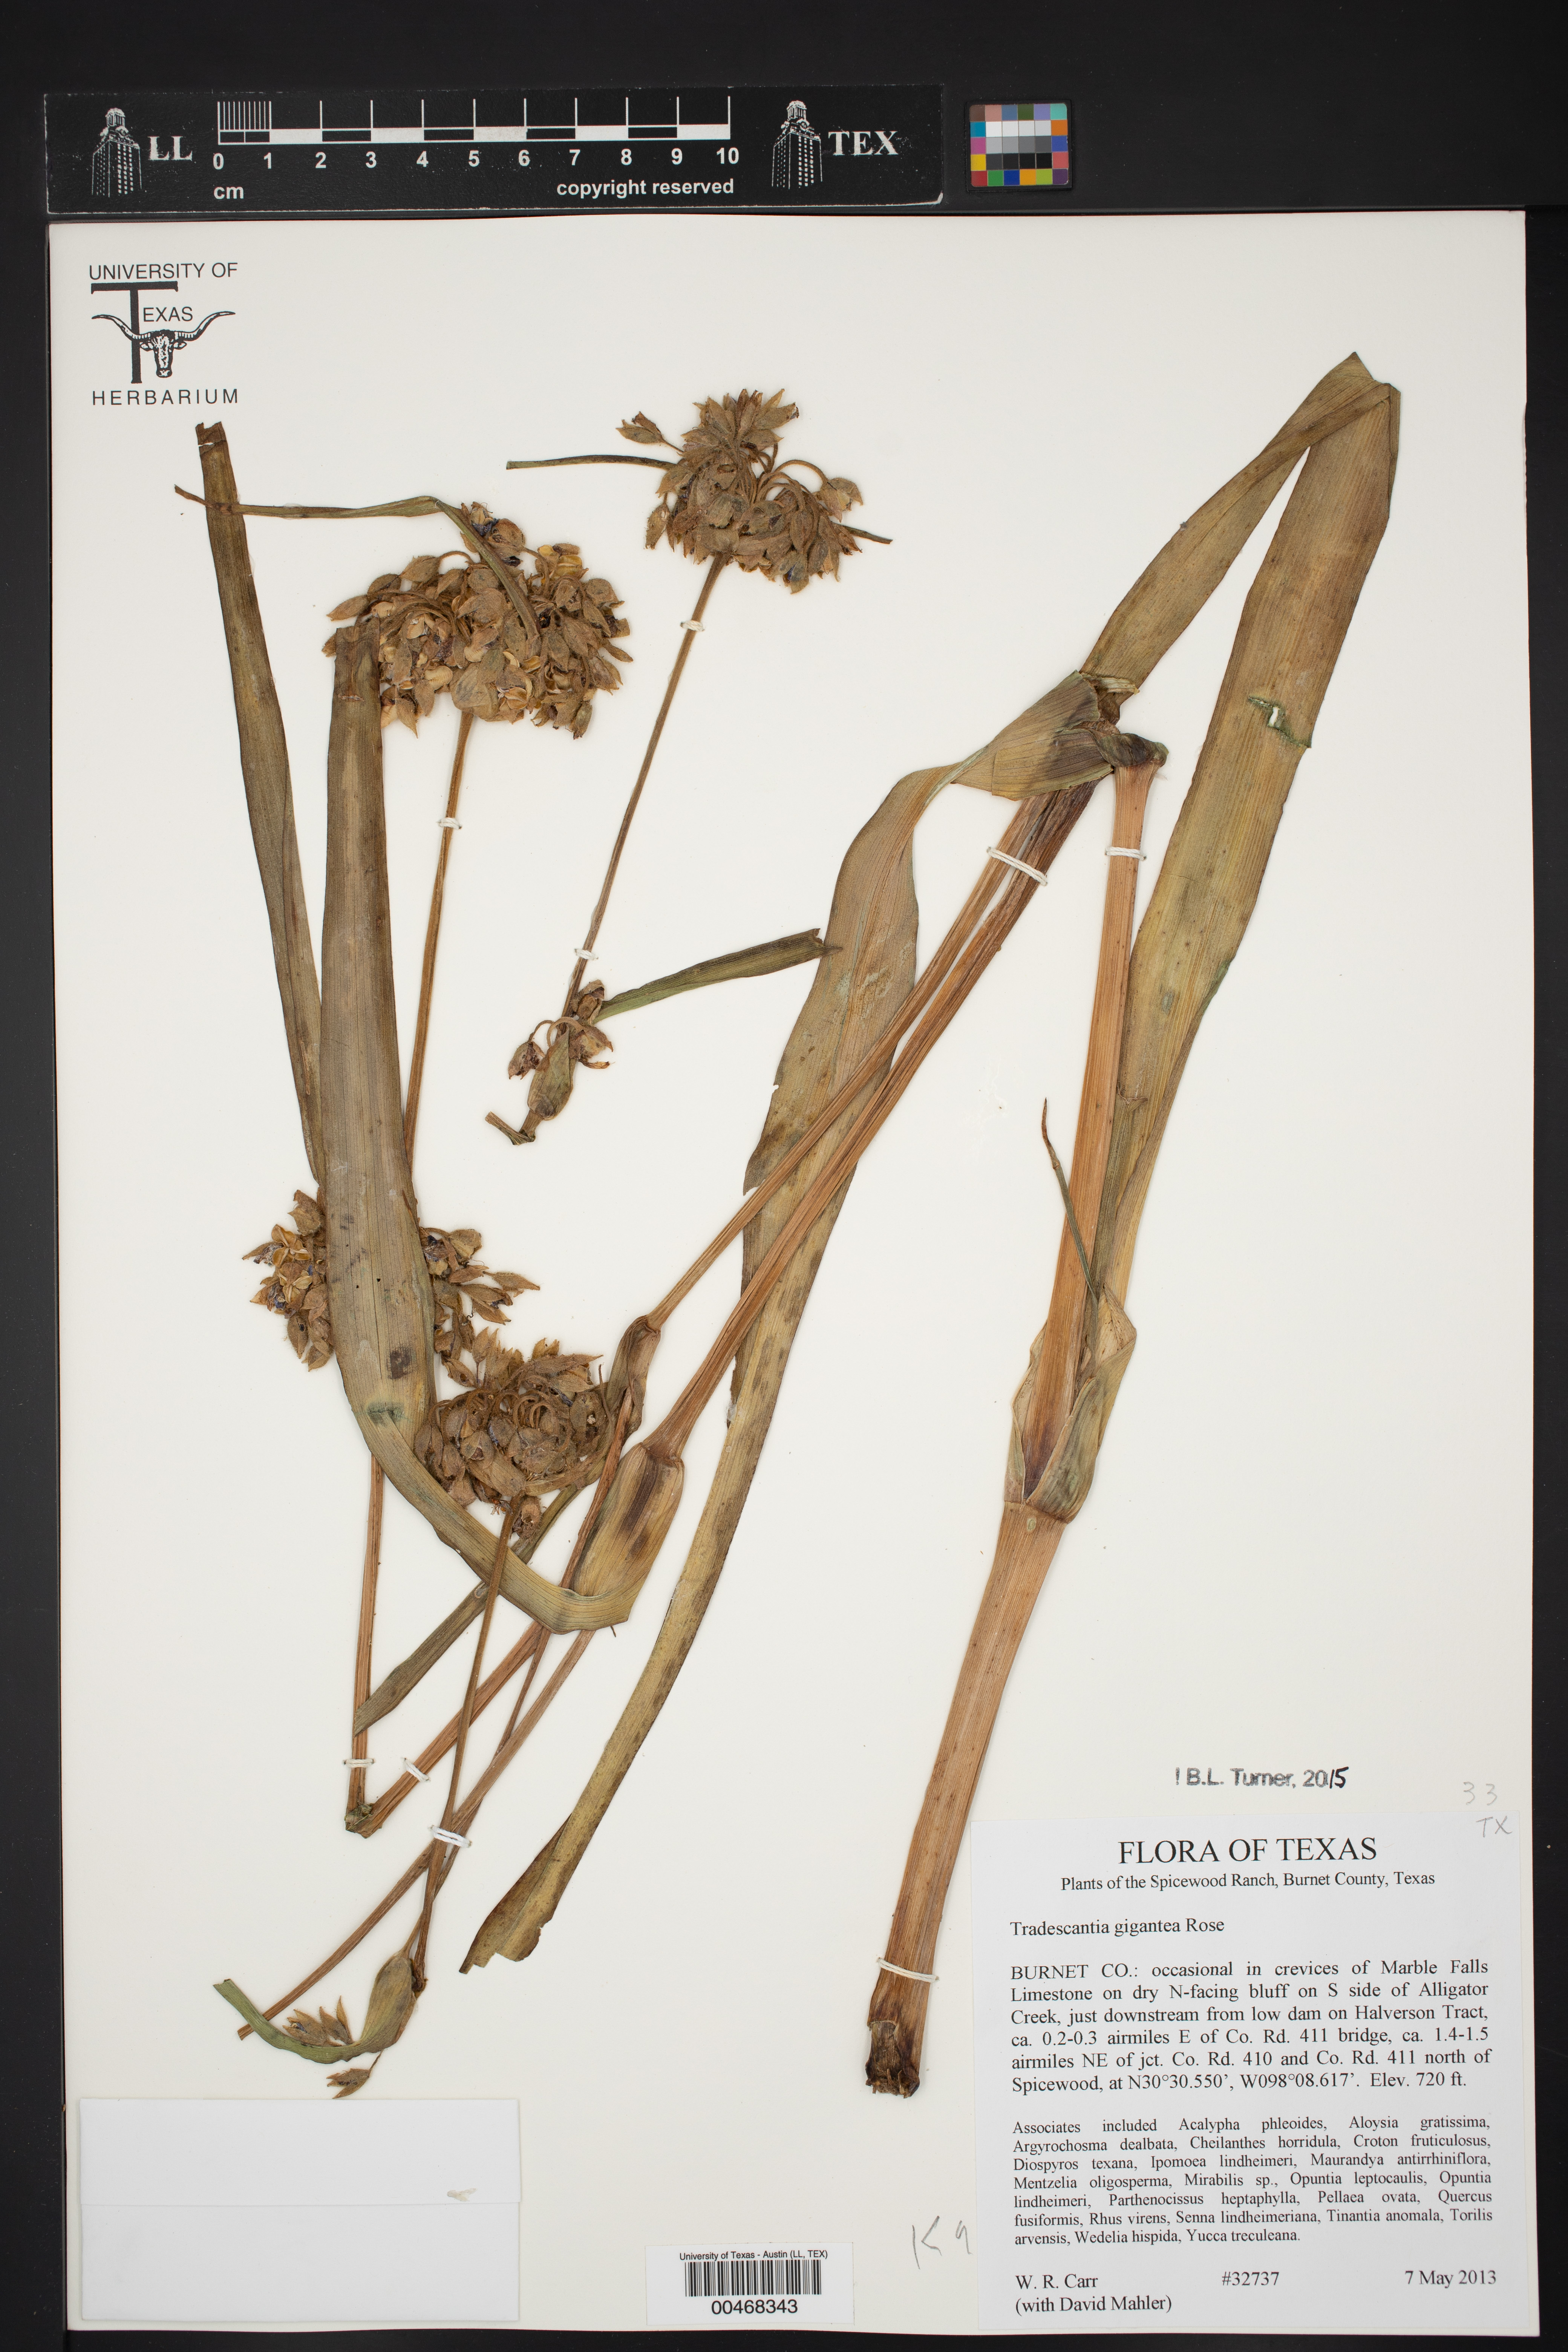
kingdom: Plantae
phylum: Tracheophyta
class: Liliopsida
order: Commelinales
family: Commelinaceae
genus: Tradescantia
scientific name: Tradescantia gigantea
